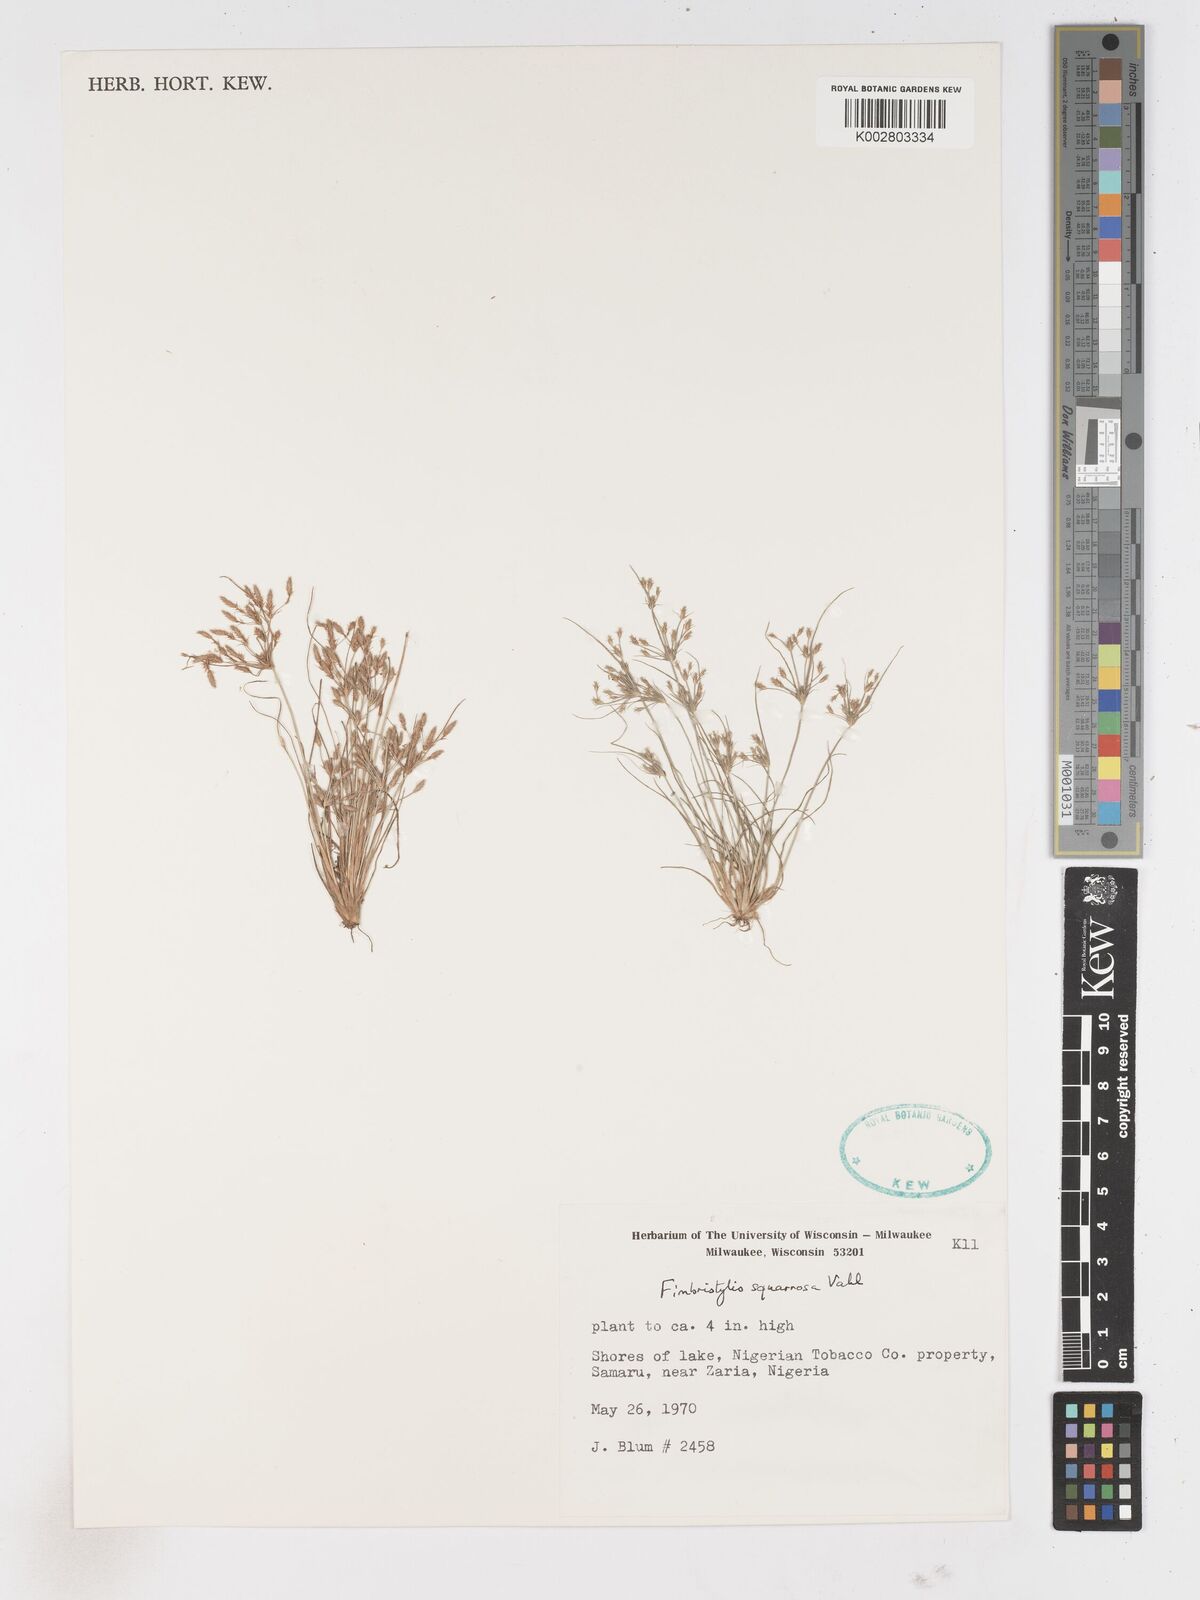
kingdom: Plantae
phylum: Tracheophyta
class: Liliopsida
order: Poales
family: Cyperaceae
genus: Fimbristylis
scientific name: Fimbristylis squarrosa
